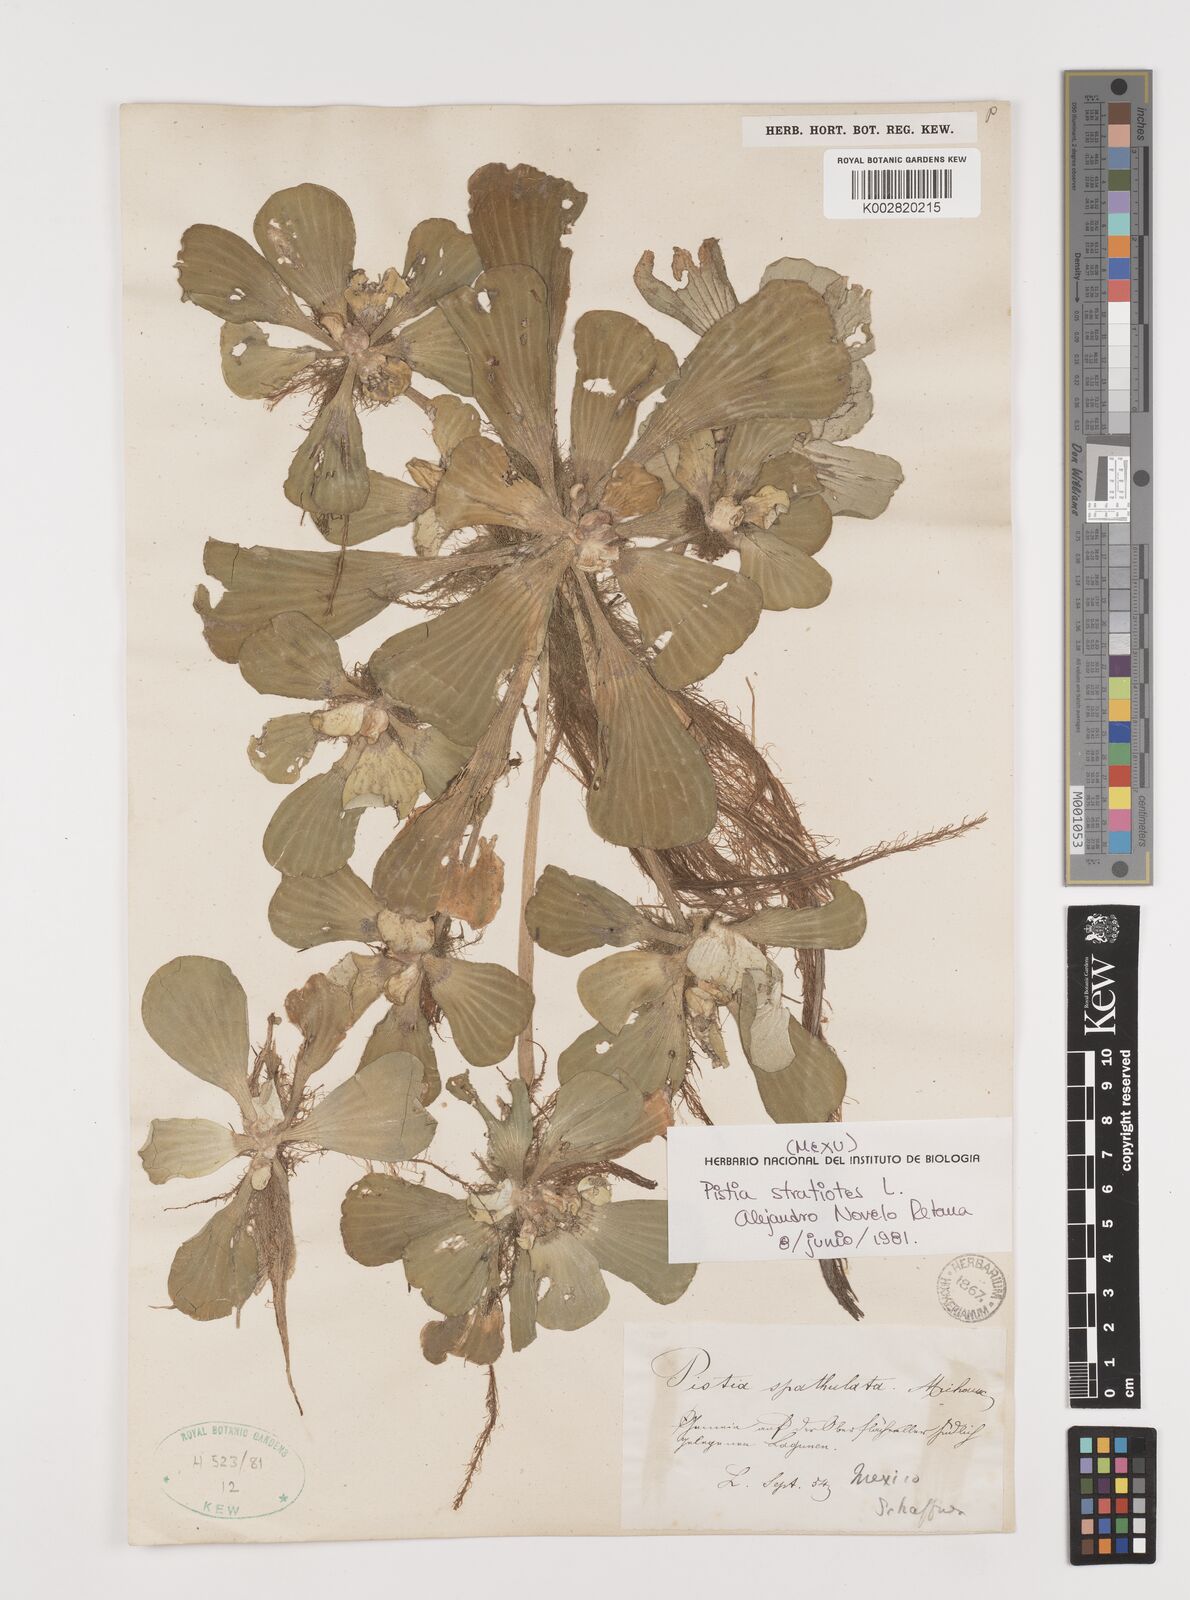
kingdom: Plantae
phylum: Tracheophyta
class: Liliopsida
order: Alismatales
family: Araceae
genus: Pistia
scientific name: Pistia stratiotes
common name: Water lettuce
